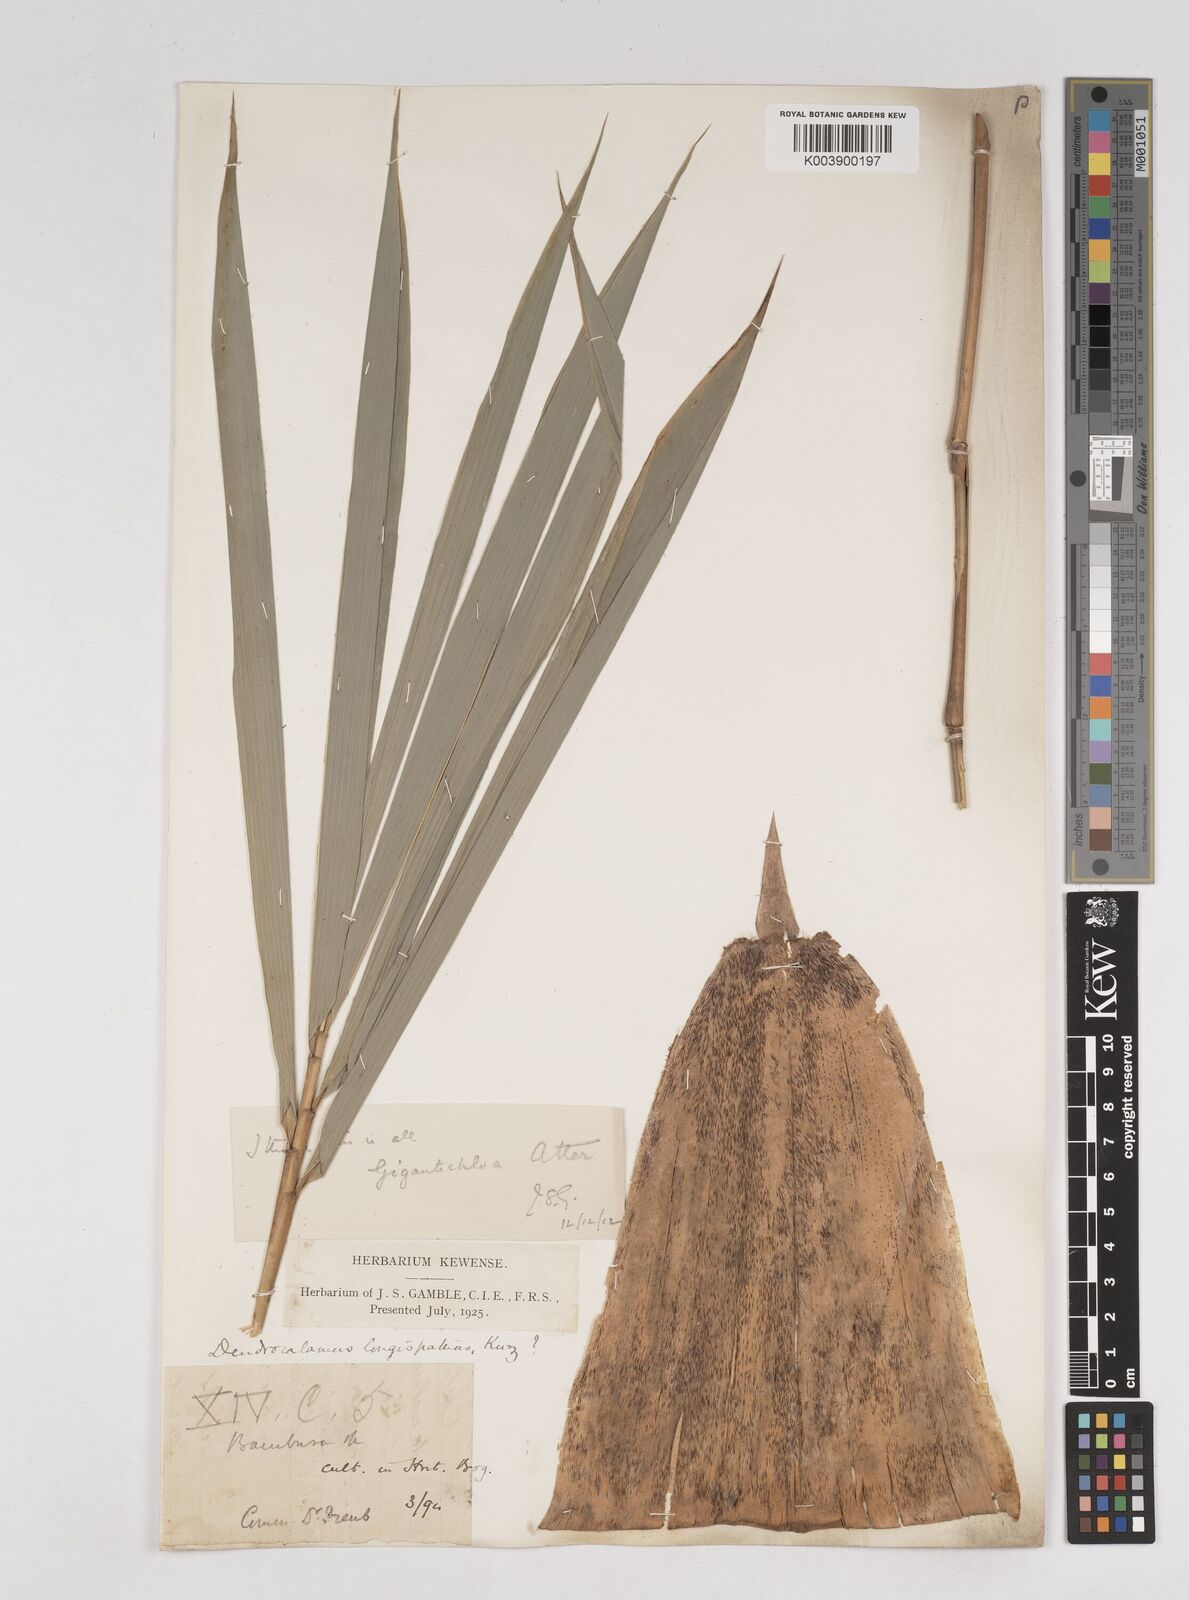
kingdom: Plantae
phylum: Tracheophyta
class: Liliopsida
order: Poales
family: Poaceae
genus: Gigantochloa
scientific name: Gigantochloa atter
